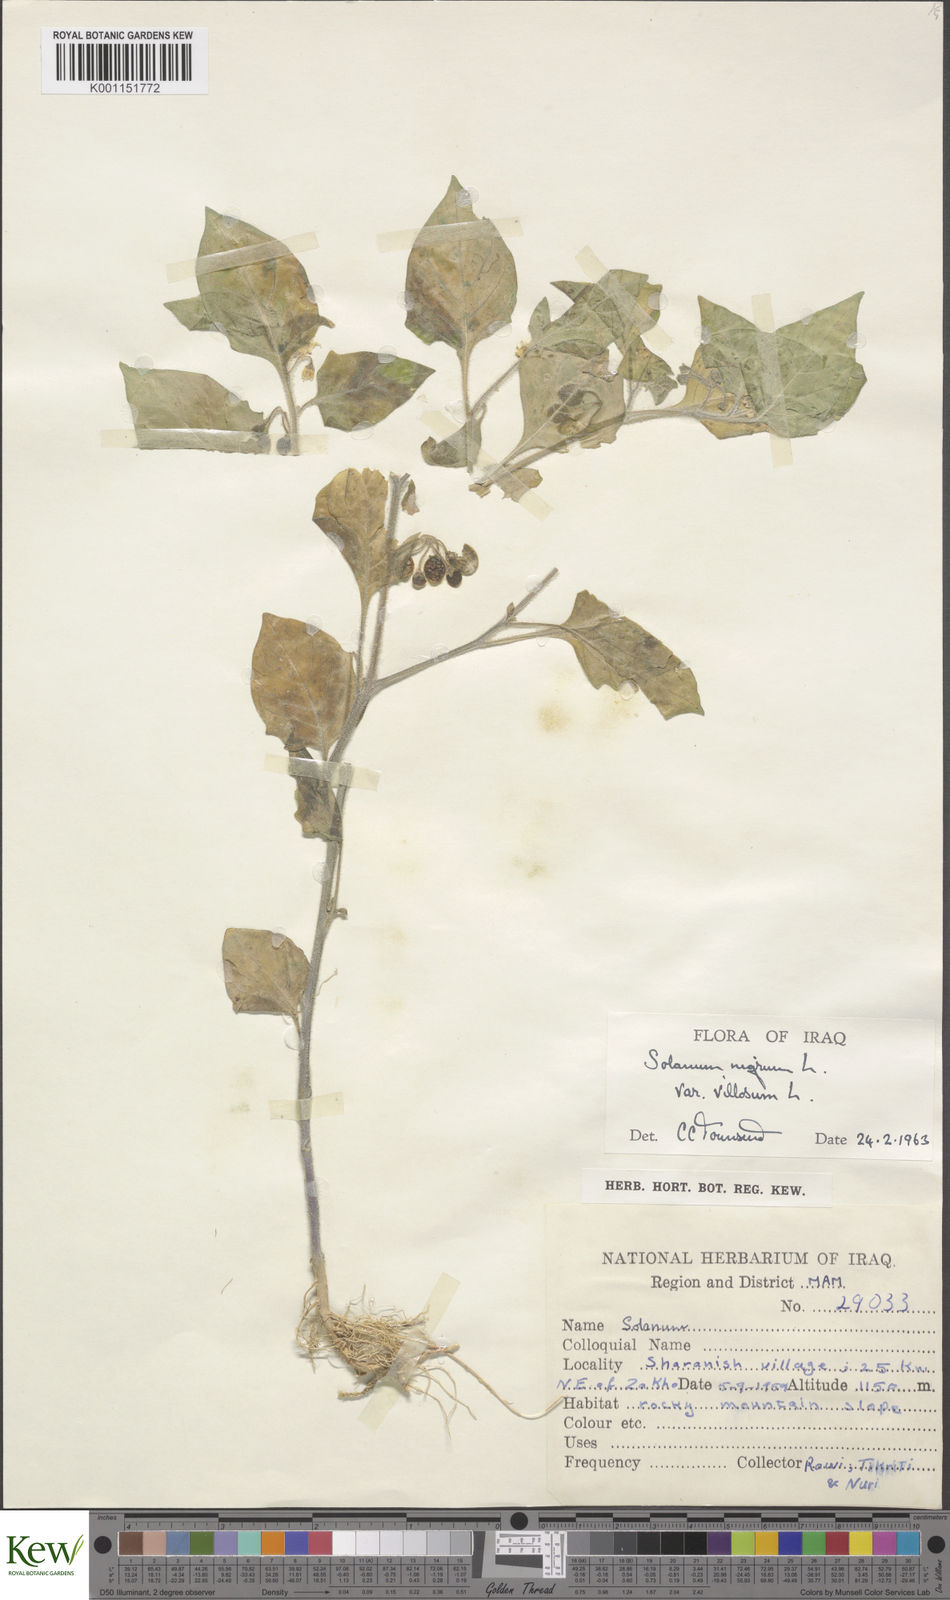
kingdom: Plantae
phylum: Tracheophyta
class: Magnoliopsida
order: Solanales
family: Solanaceae
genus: Solanum
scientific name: Solanum villosum
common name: Red nightshade
